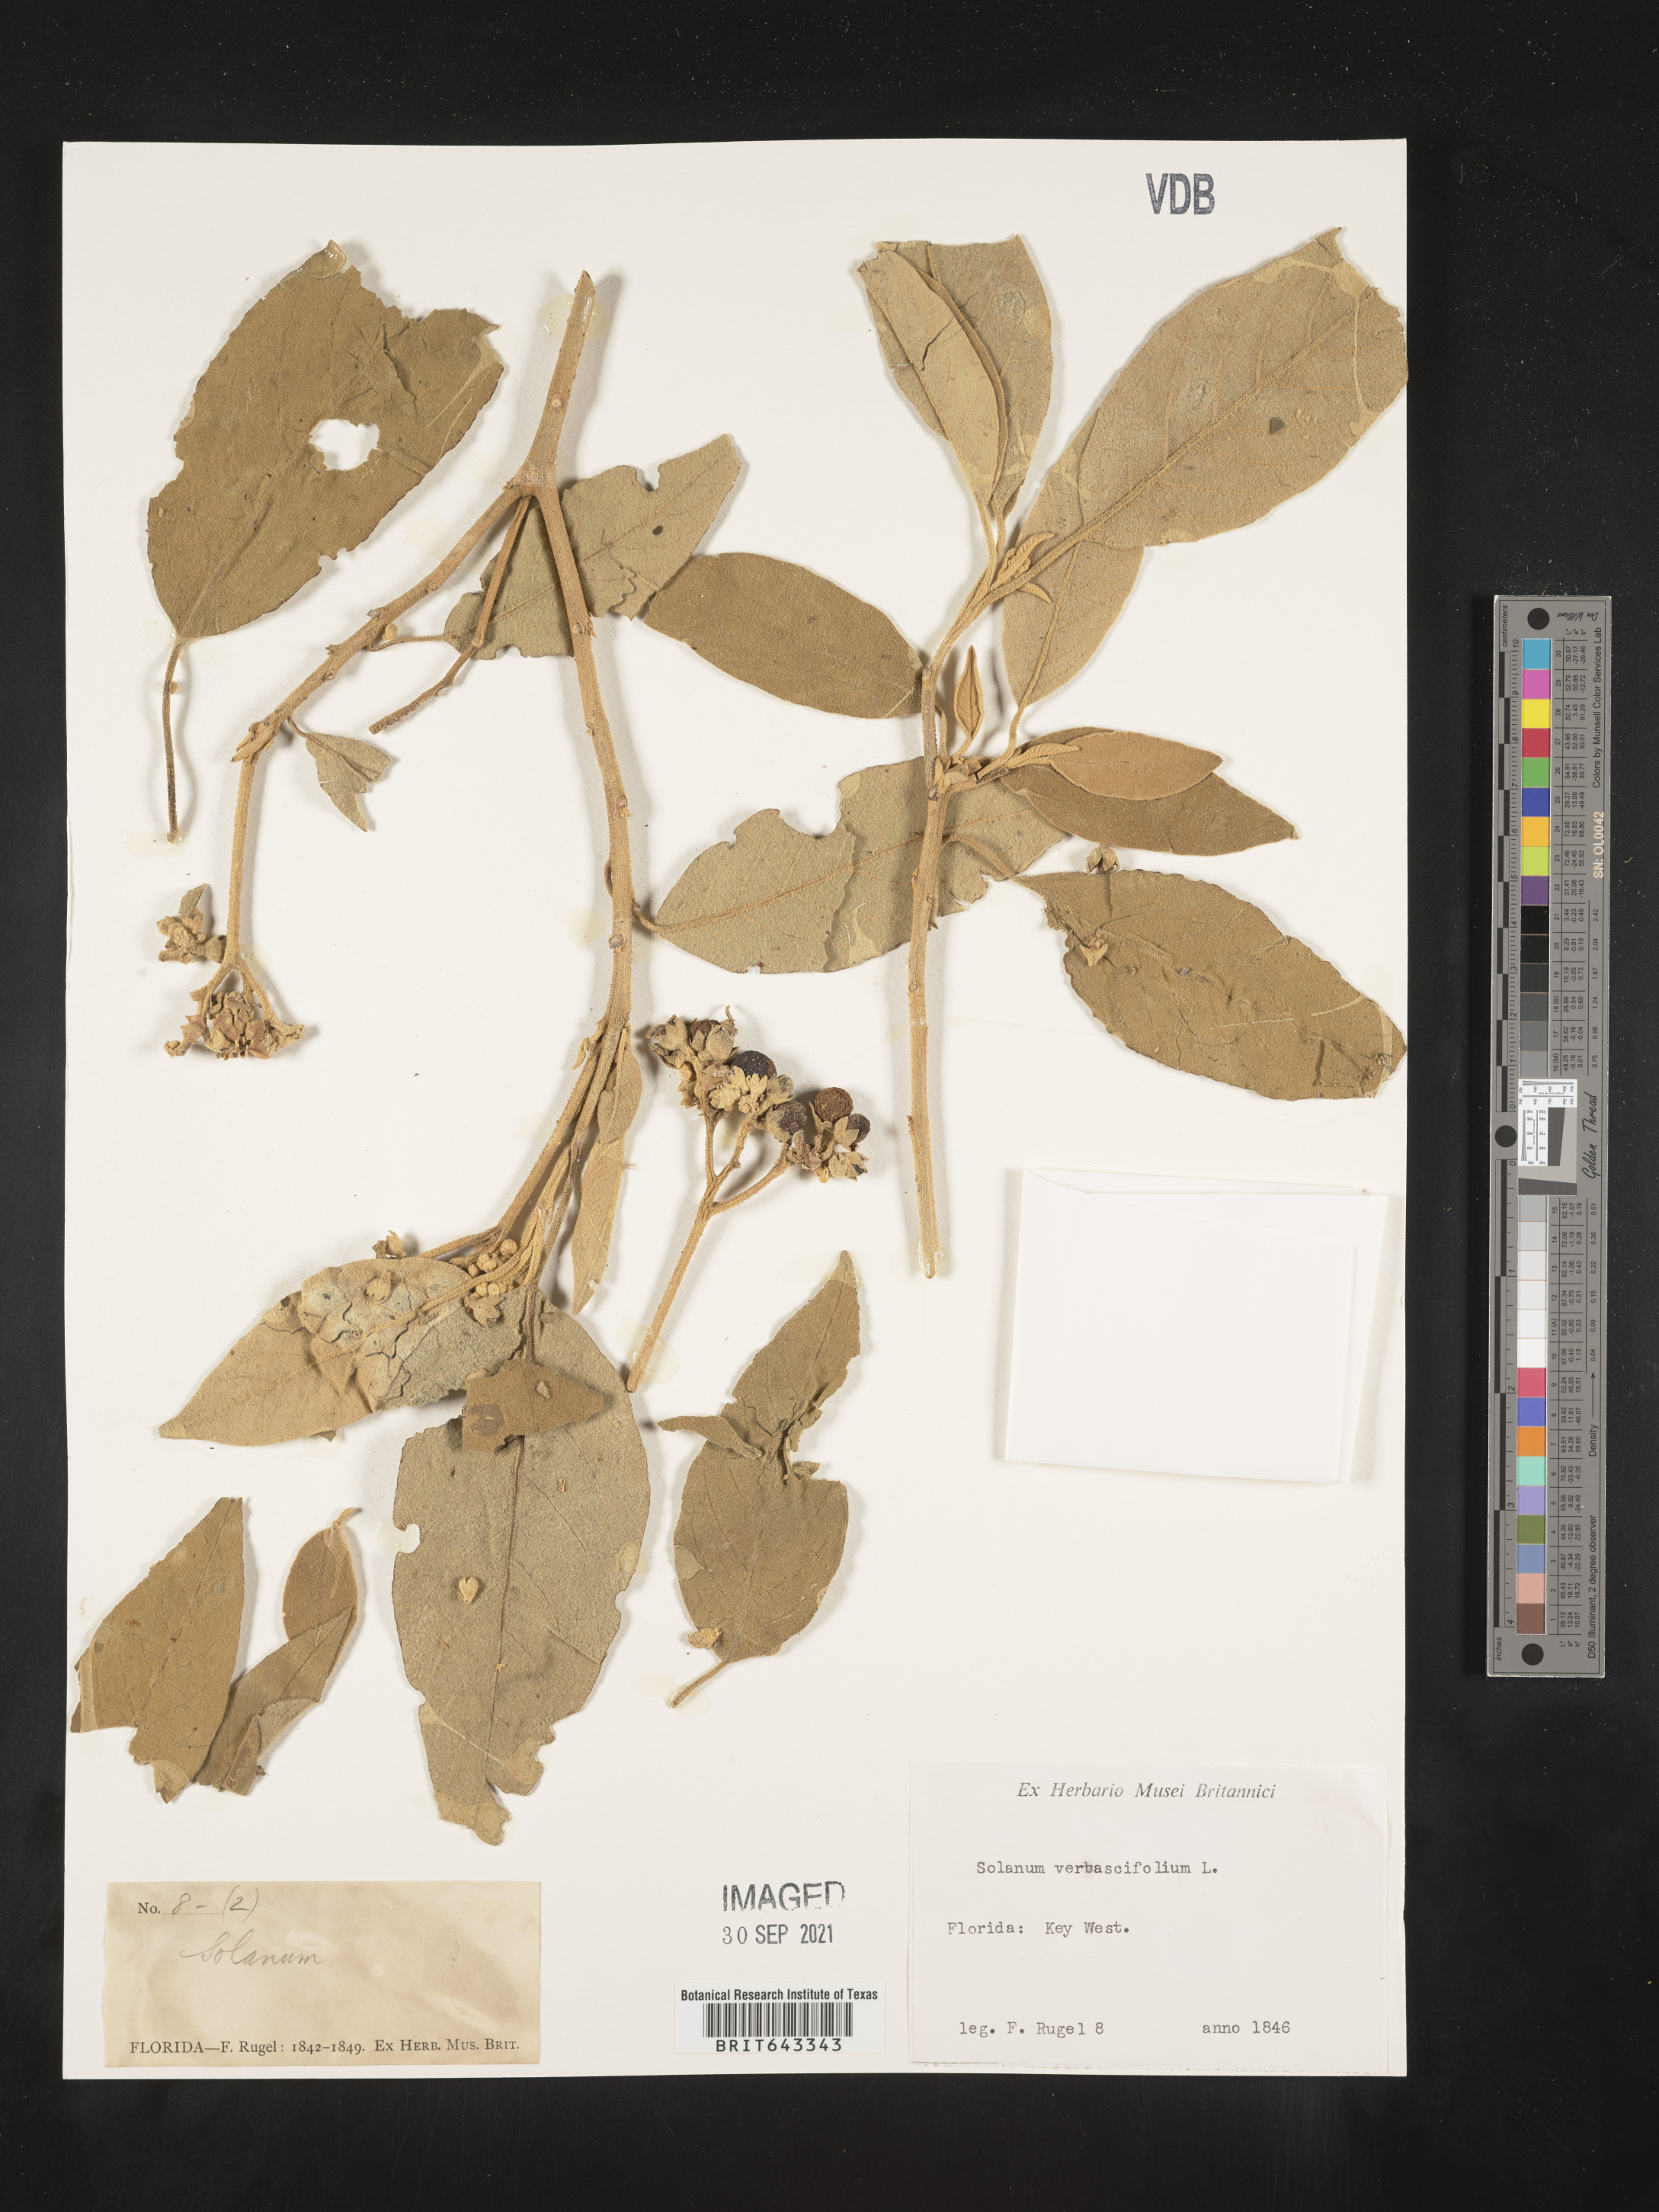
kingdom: Plantae
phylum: Tracheophyta
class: Magnoliopsida
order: Solanales
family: Solanaceae
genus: Solanum
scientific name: Solanum
